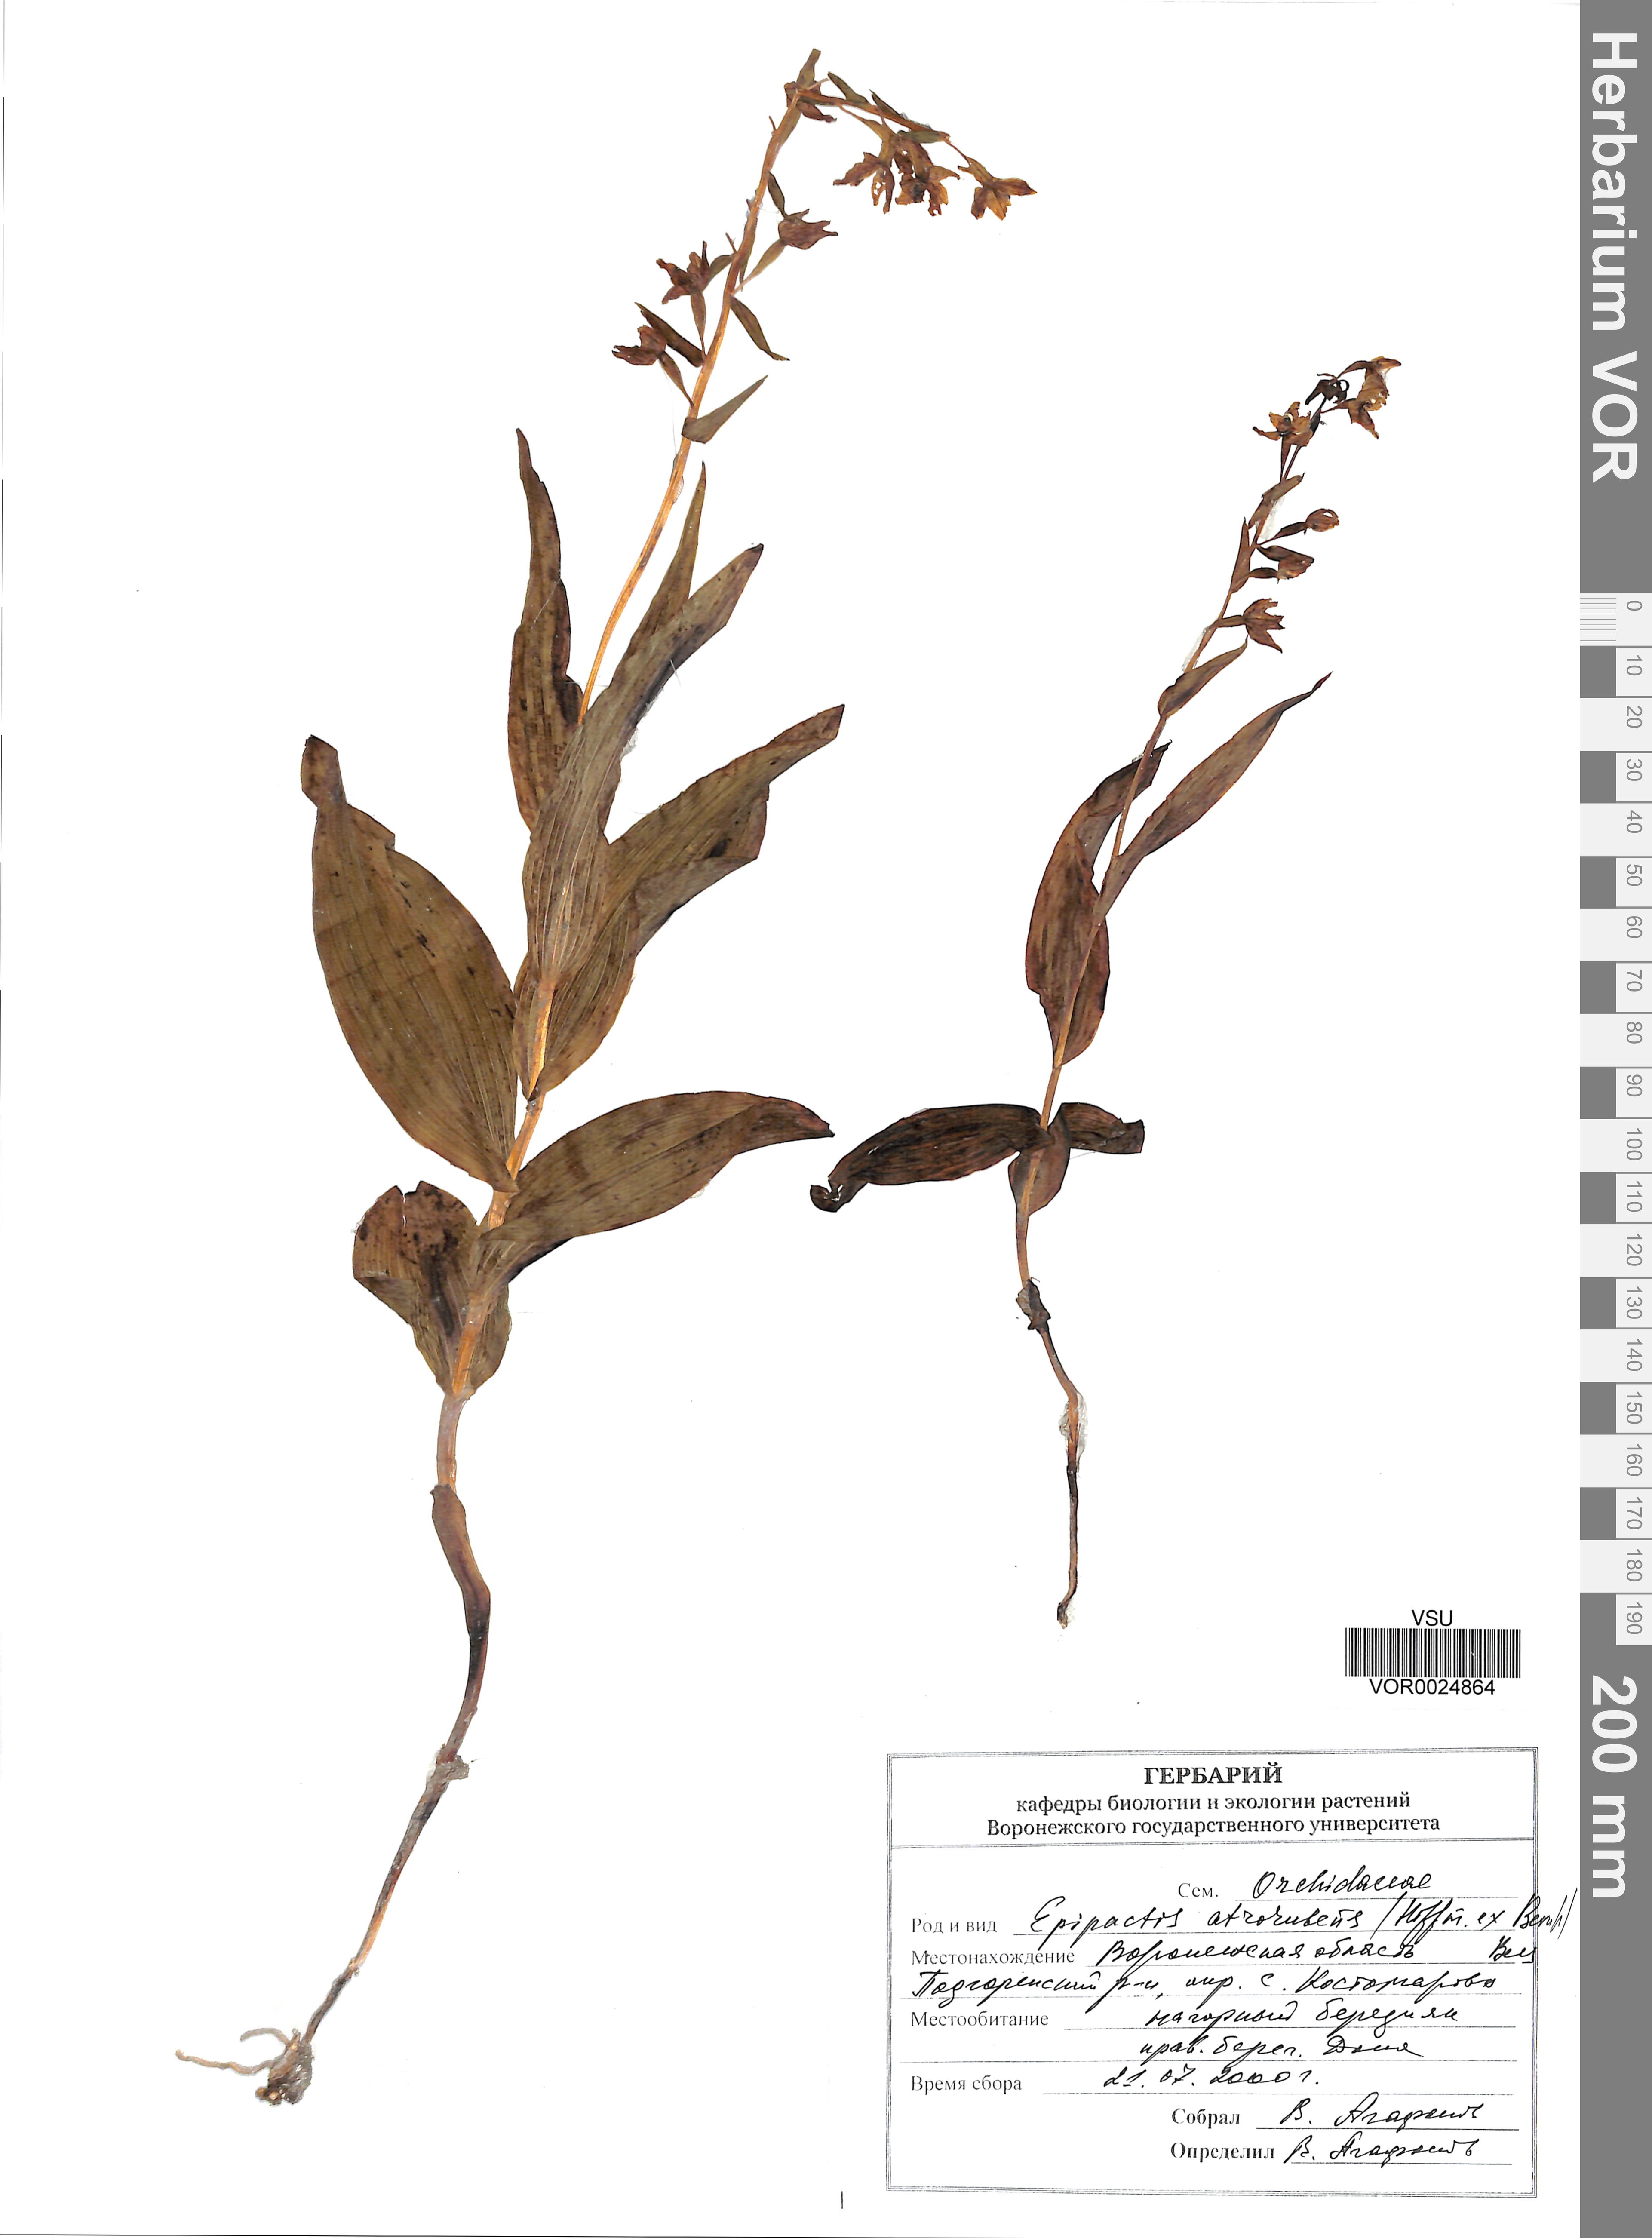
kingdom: Plantae
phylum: Tracheophyta
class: Liliopsida
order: Asparagales
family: Orchidaceae
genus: Epipactis
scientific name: Epipactis atrorubens
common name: Dark-red helleborine
